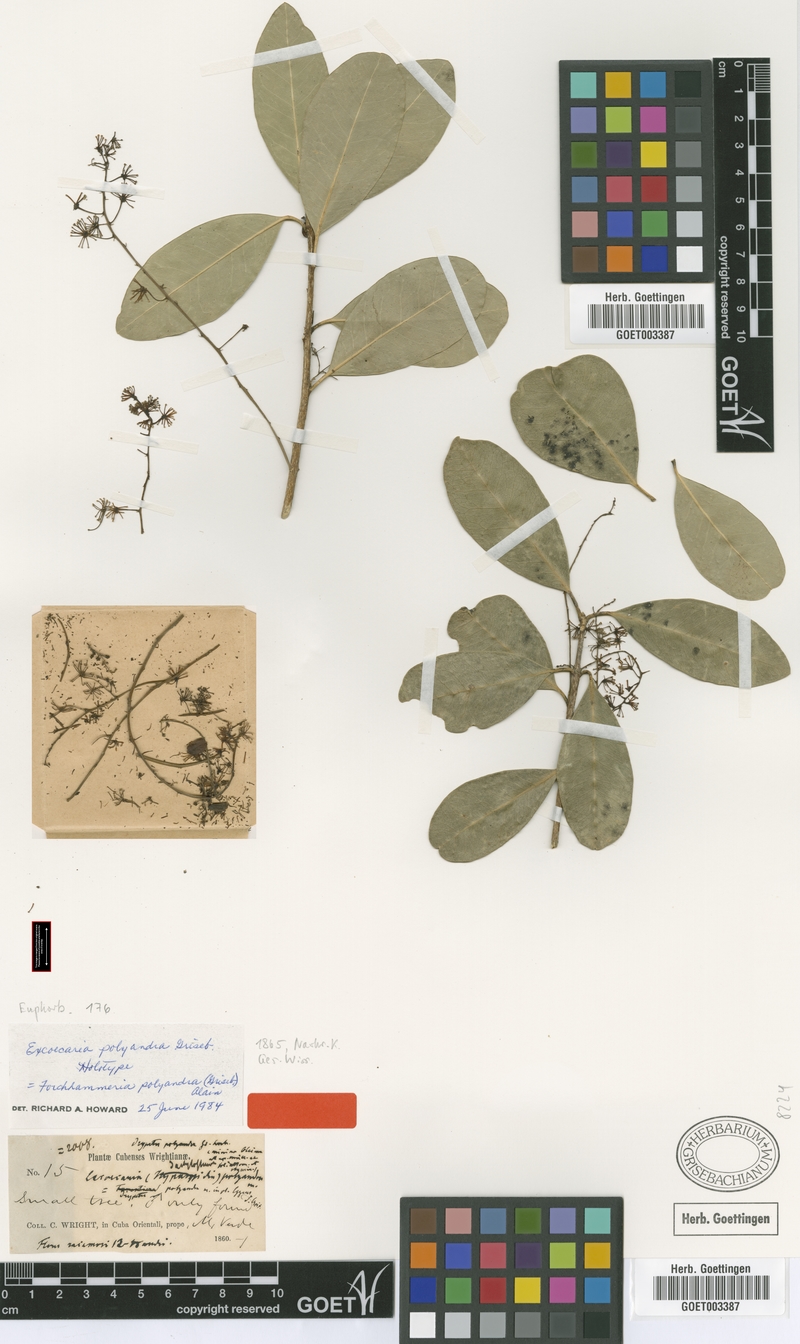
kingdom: Plantae
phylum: Tracheophyta
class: Magnoliopsida
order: Brassicales
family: Stixaceae
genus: Forchhammeria
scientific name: Forchhammeria polyandra
